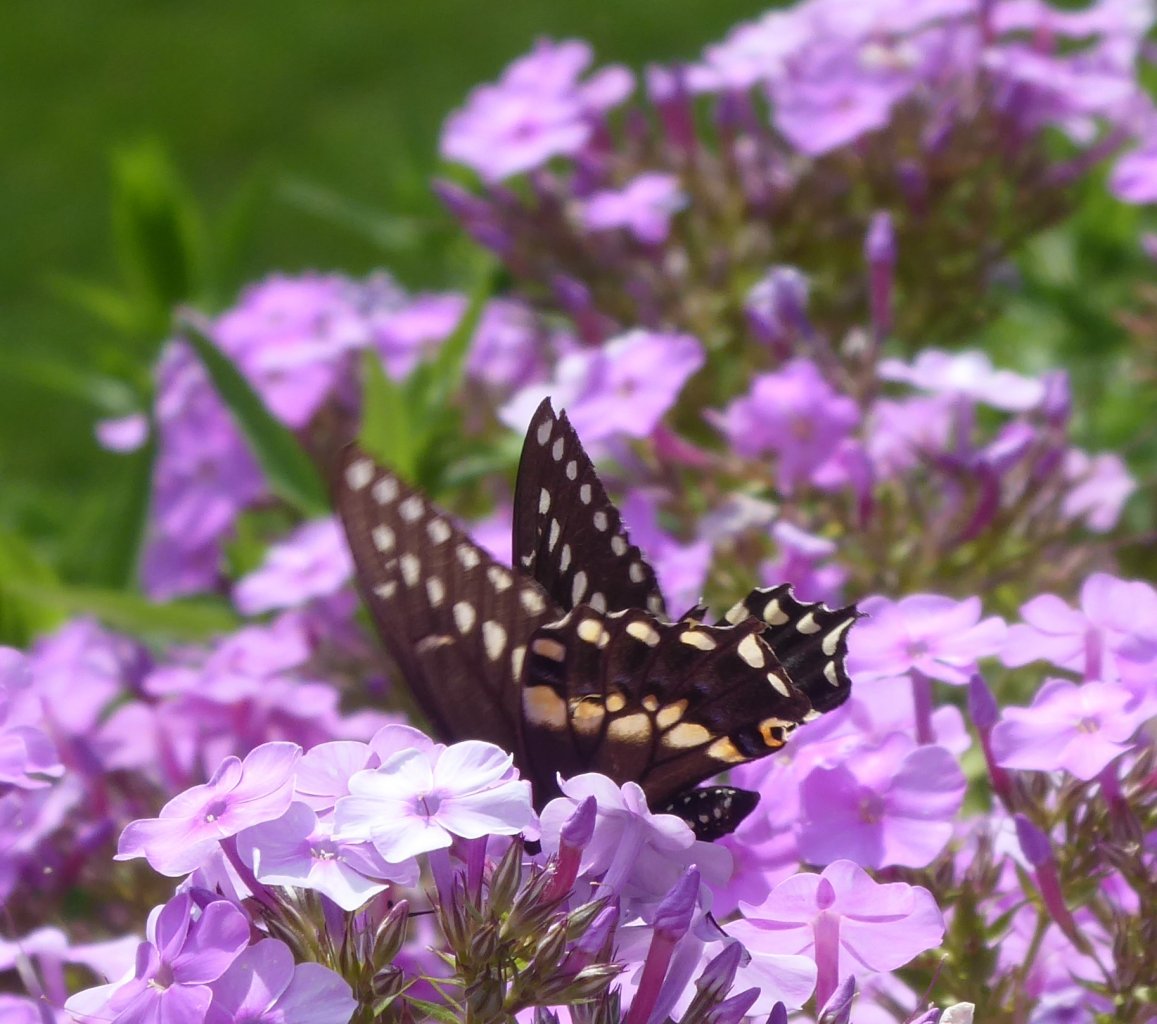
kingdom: Animalia
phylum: Arthropoda
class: Insecta
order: Lepidoptera
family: Papilionidae
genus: Papilio
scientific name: Papilio polyxenes
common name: Black Swallowtail
